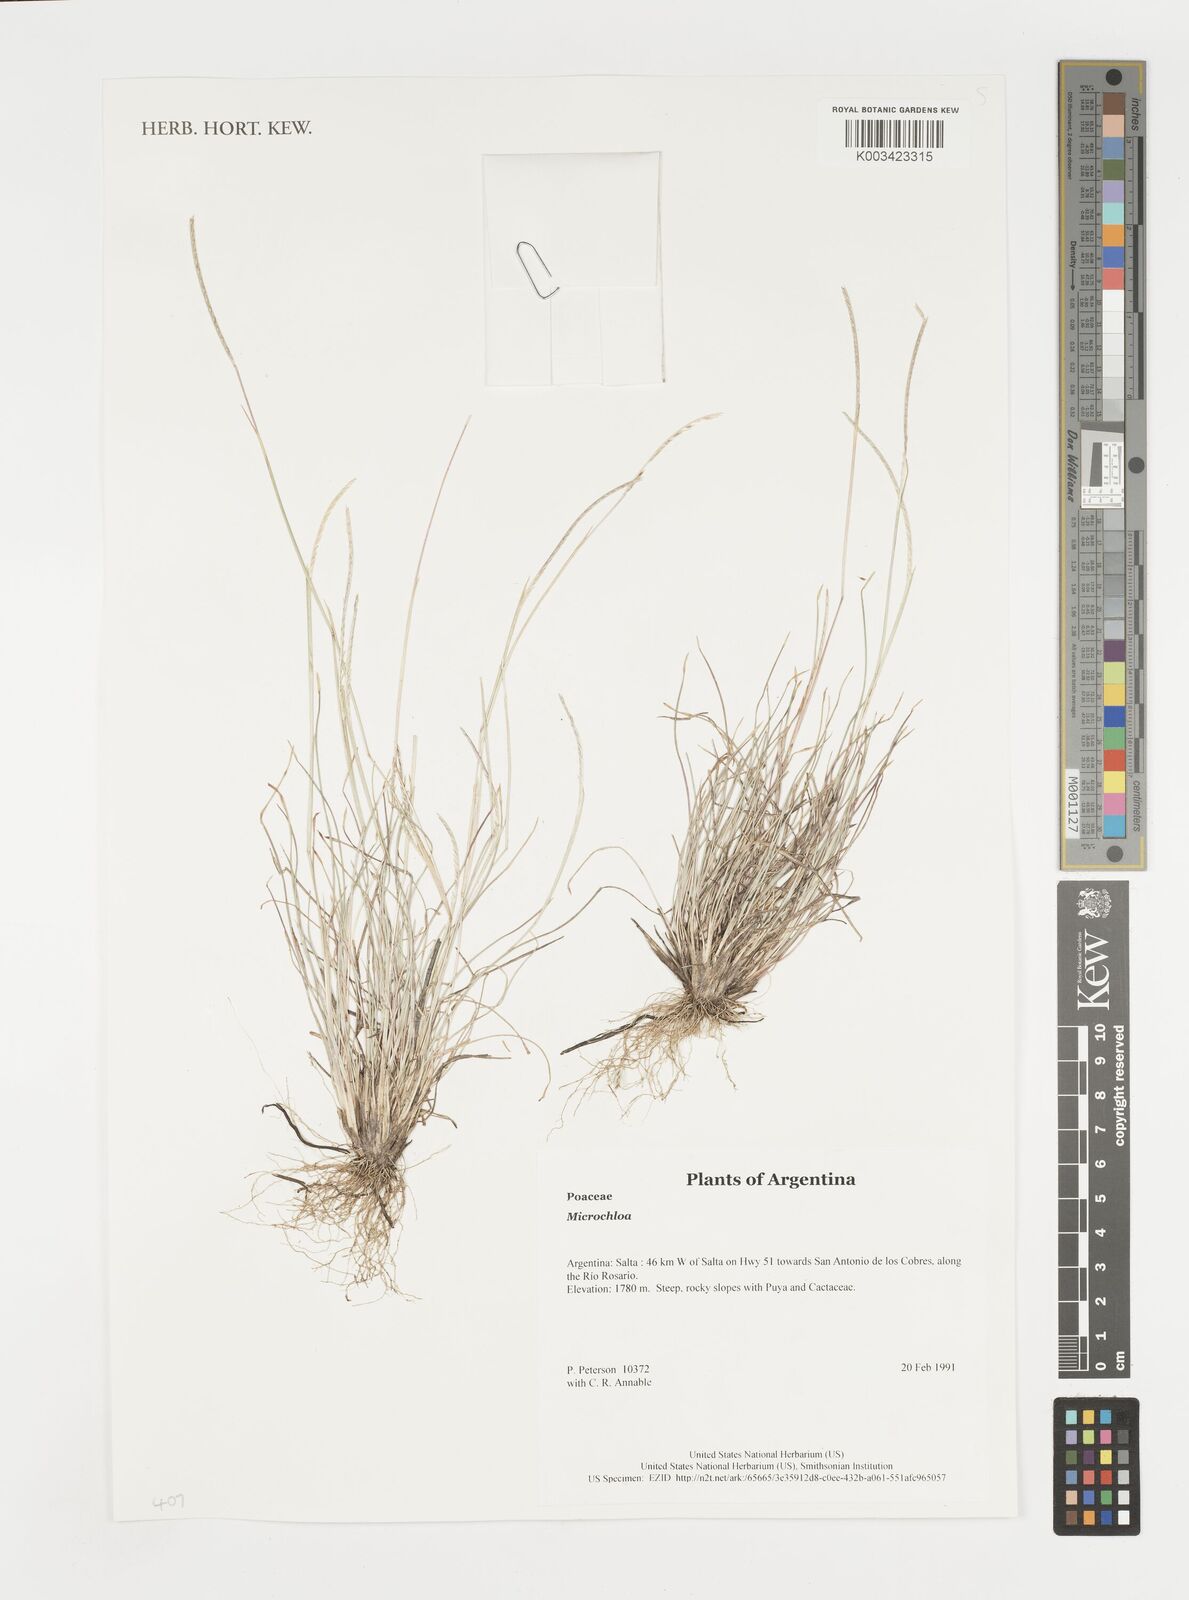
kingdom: Plantae
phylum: Tracheophyta
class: Liliopsida
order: Poales
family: Poaceae
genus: Microchloa
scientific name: Microchloa indica
